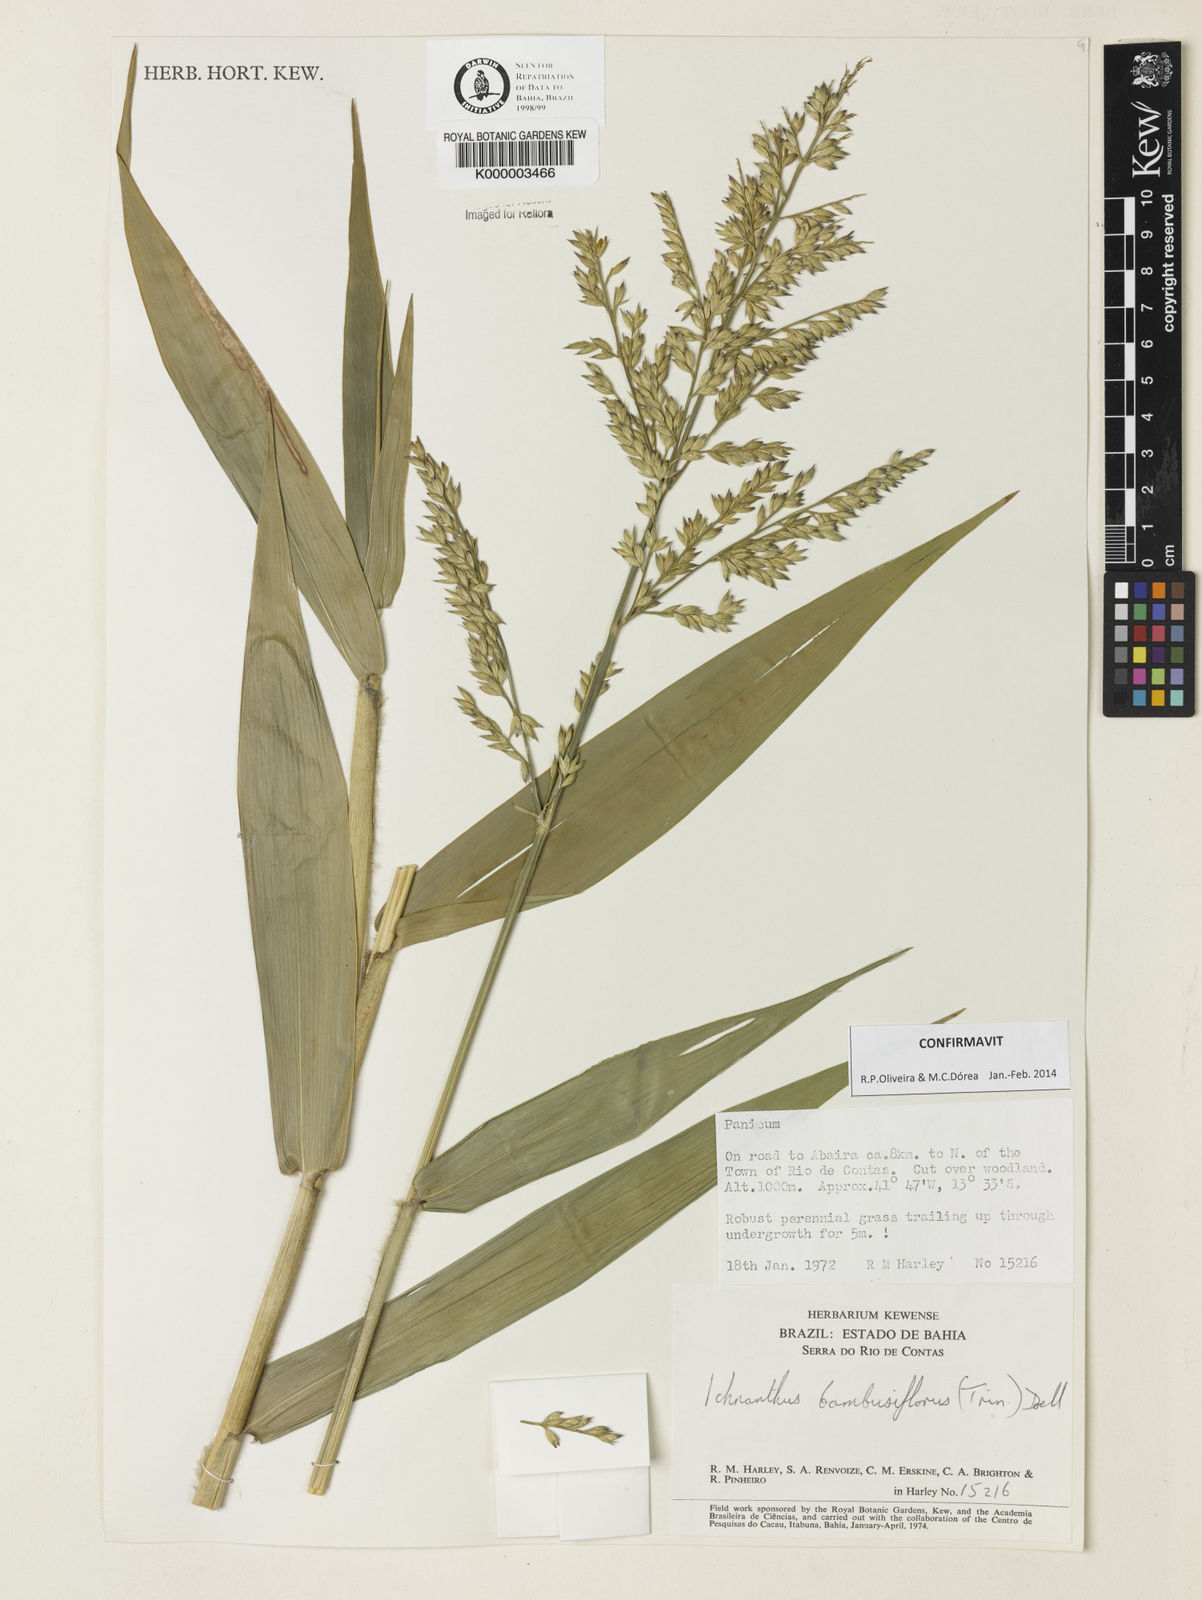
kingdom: Plantae
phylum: Tracheophyta
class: Liliopsida
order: Poales
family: Poaceae
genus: Ichnanthus
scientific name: Ichnanthus
